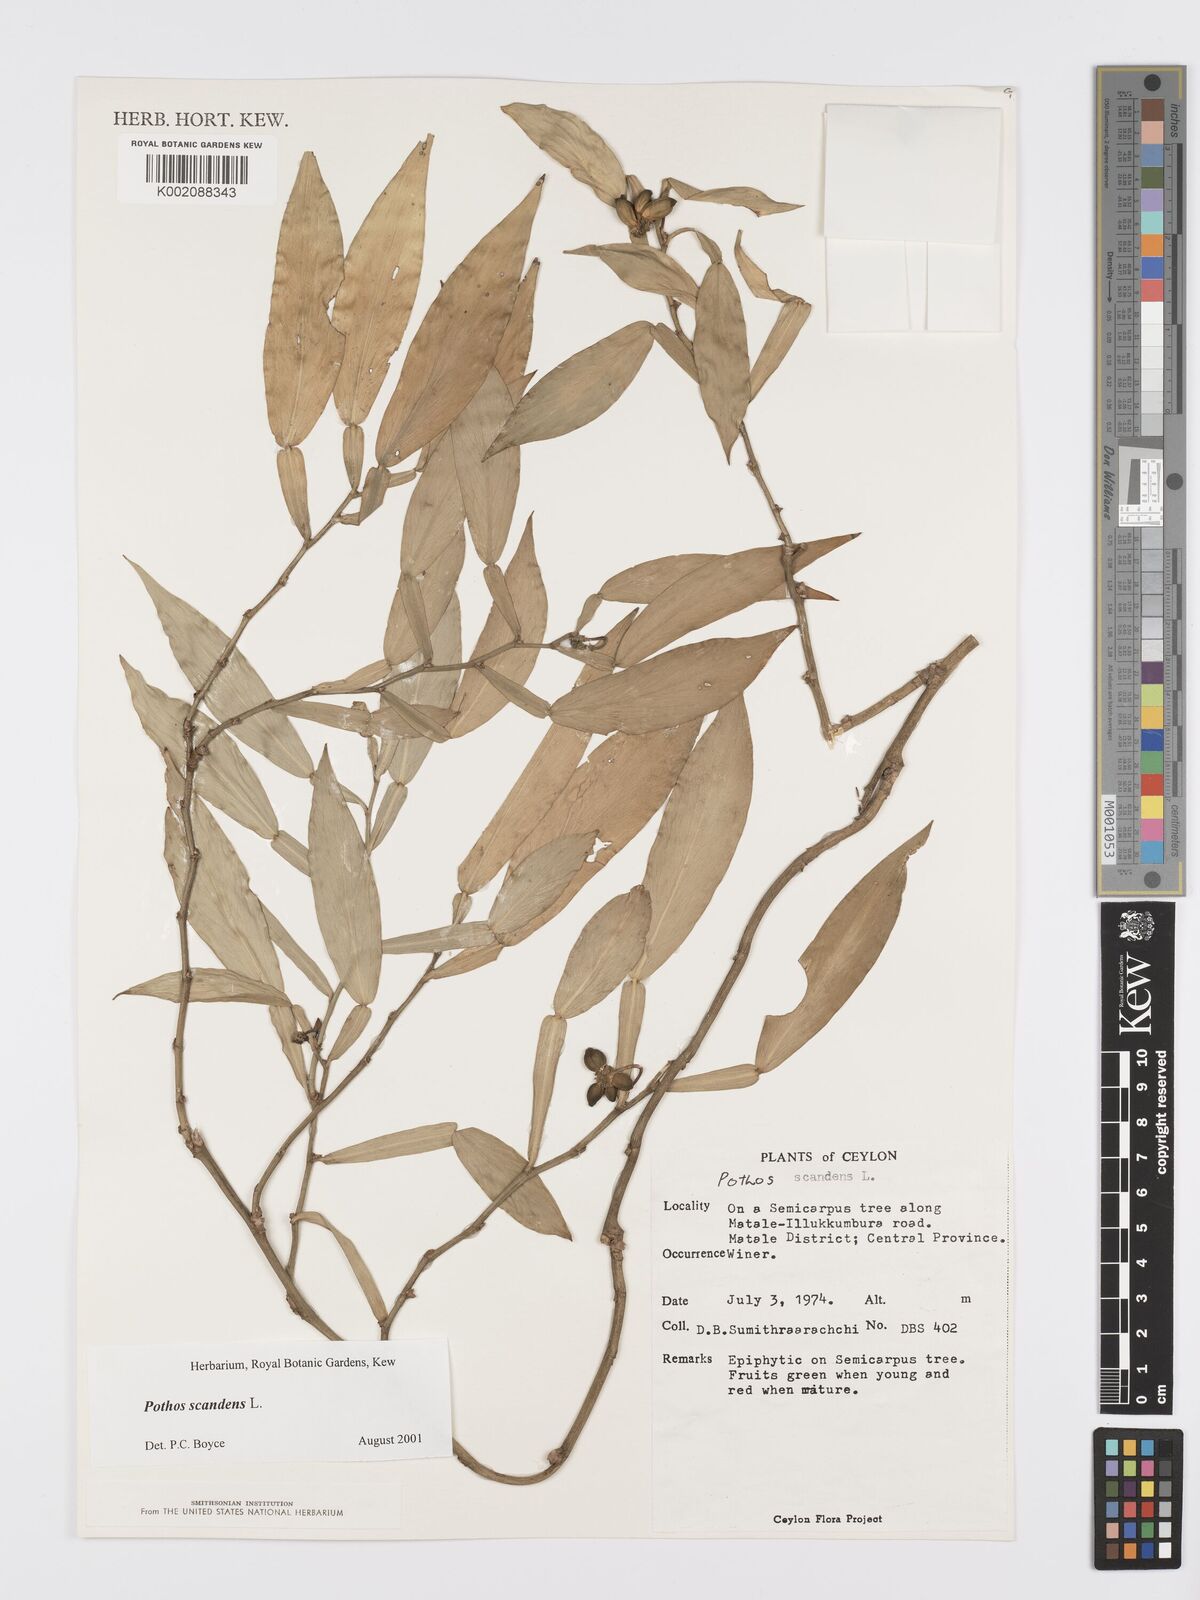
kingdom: Plantae
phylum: Tracheophyta
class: Liliopsida
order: Alismatales
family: Araceae
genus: Pothos
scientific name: Pothos scandens
